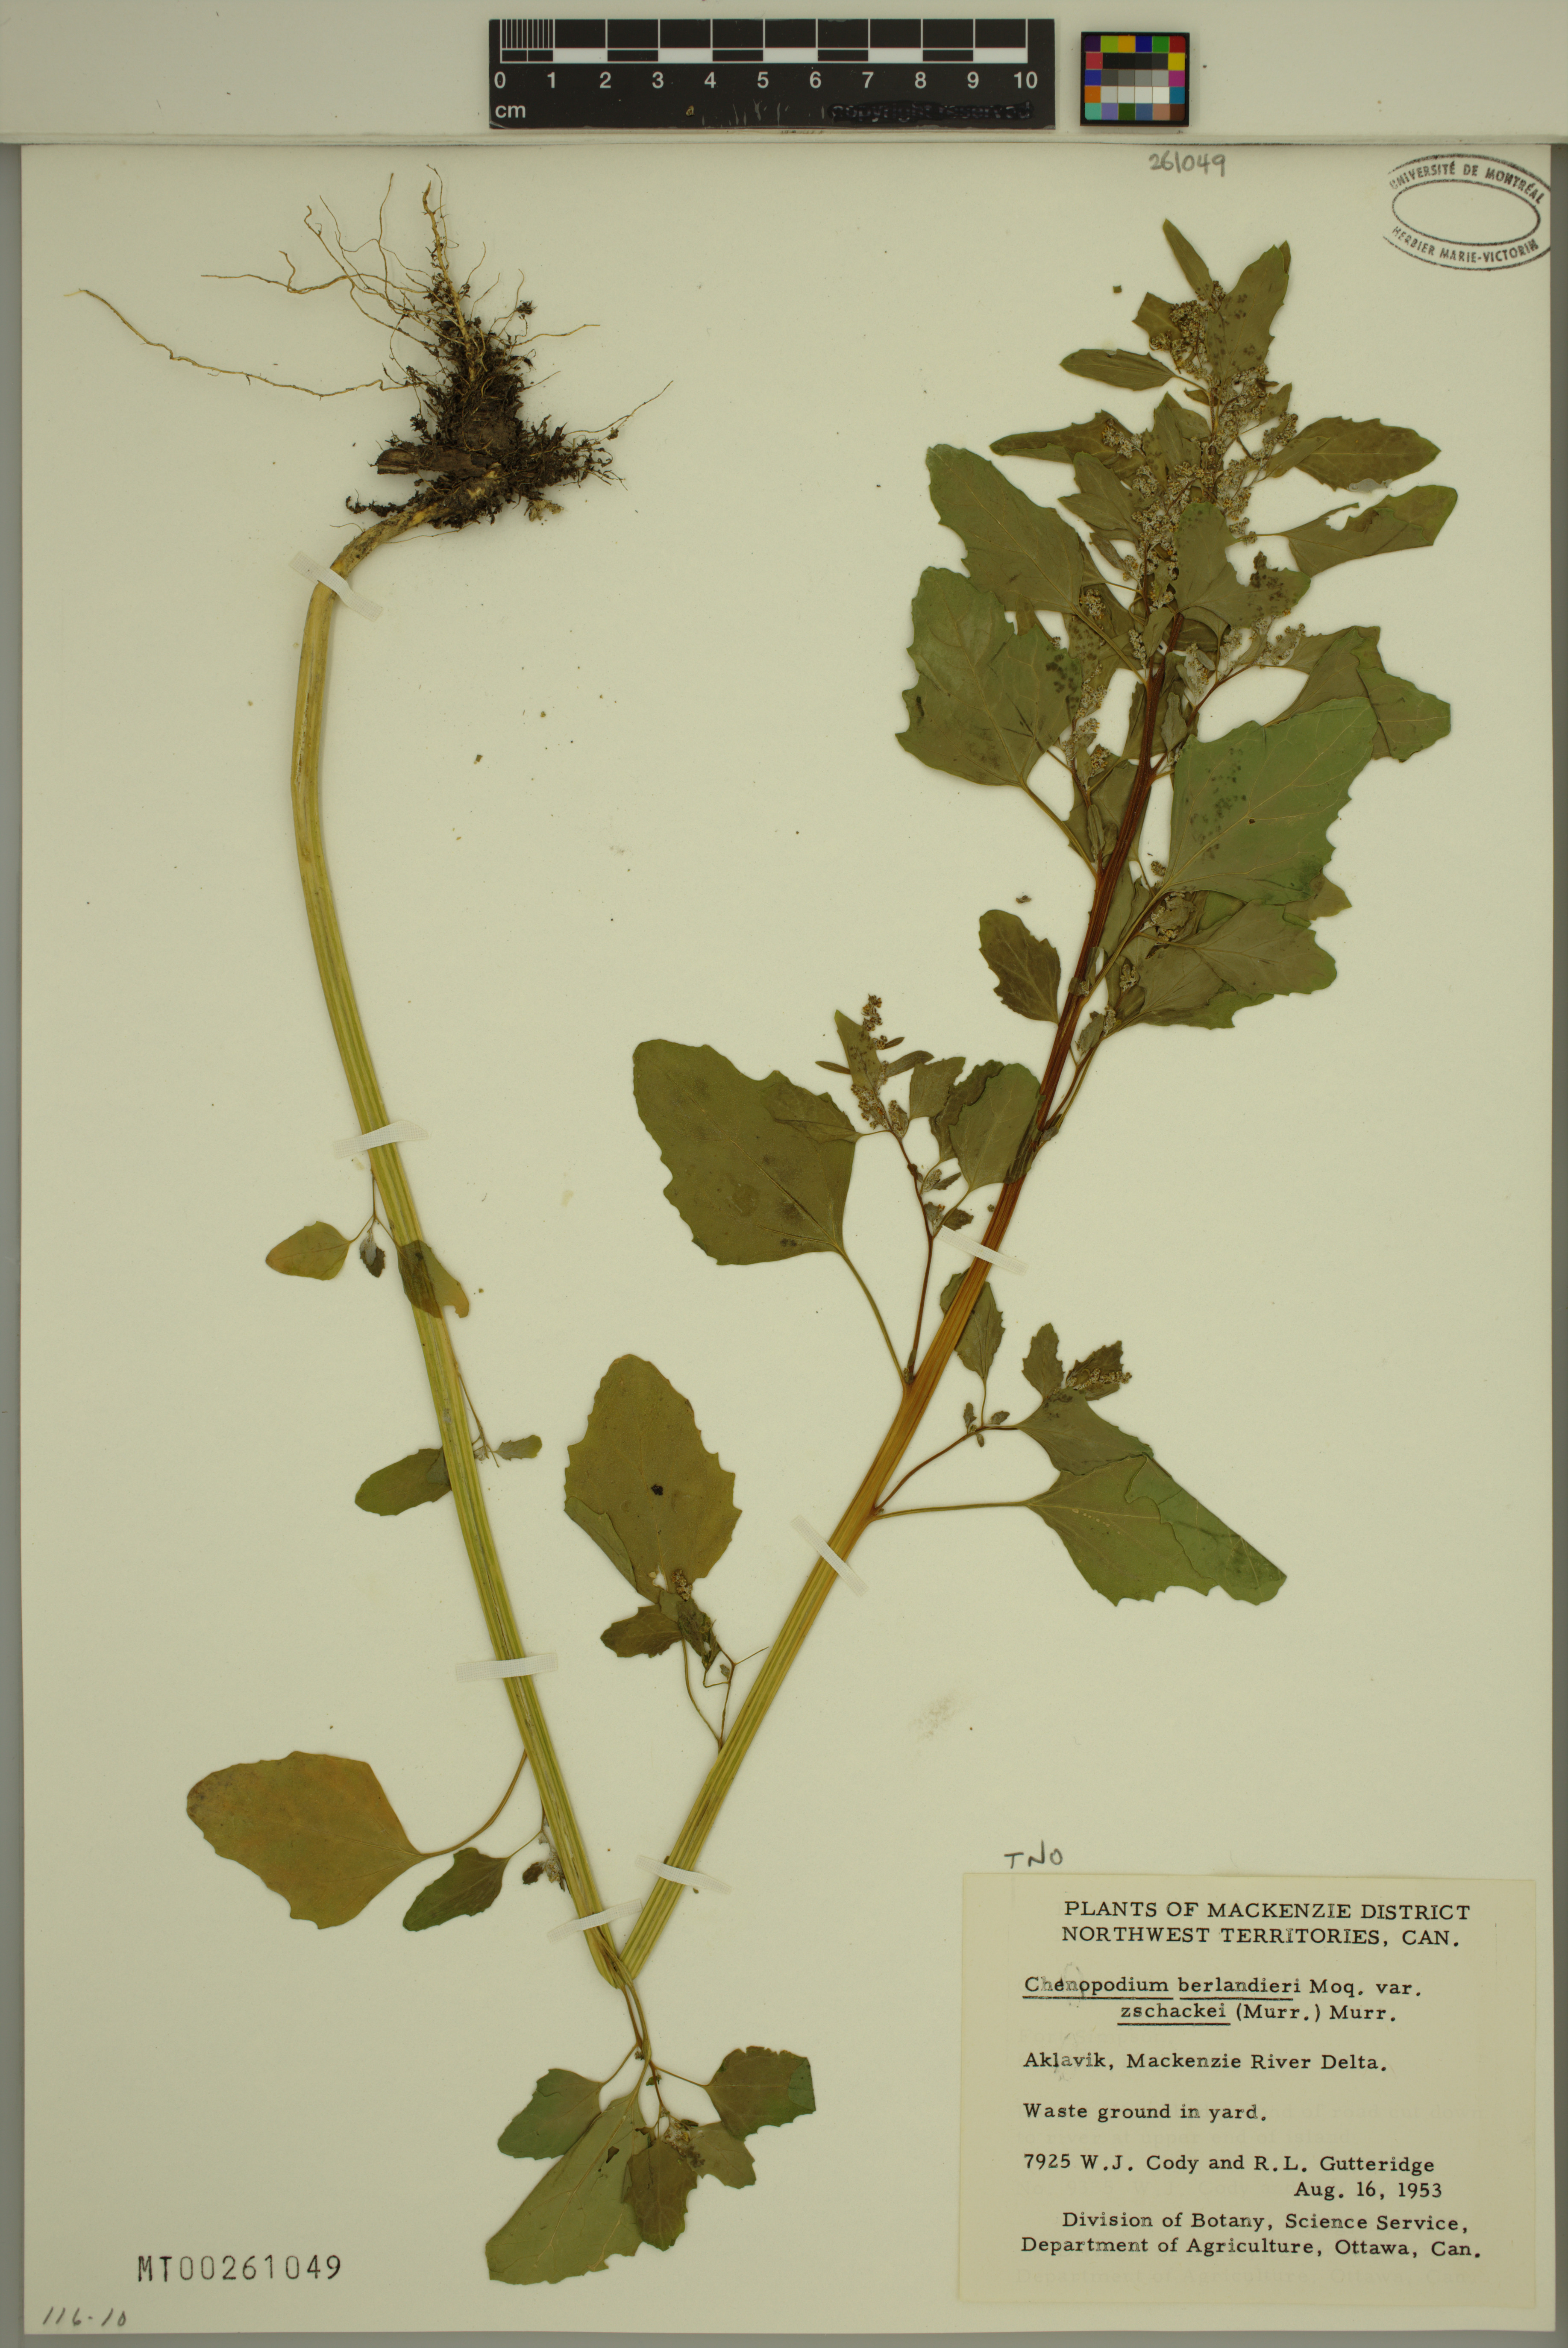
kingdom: Plantae
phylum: Tracheophyta
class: Magnoliopsida
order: Caryophyllales
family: Amaranthaceae
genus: Chenopodium
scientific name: Chenopodium berlandieri
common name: Pit-seed goosefoot
